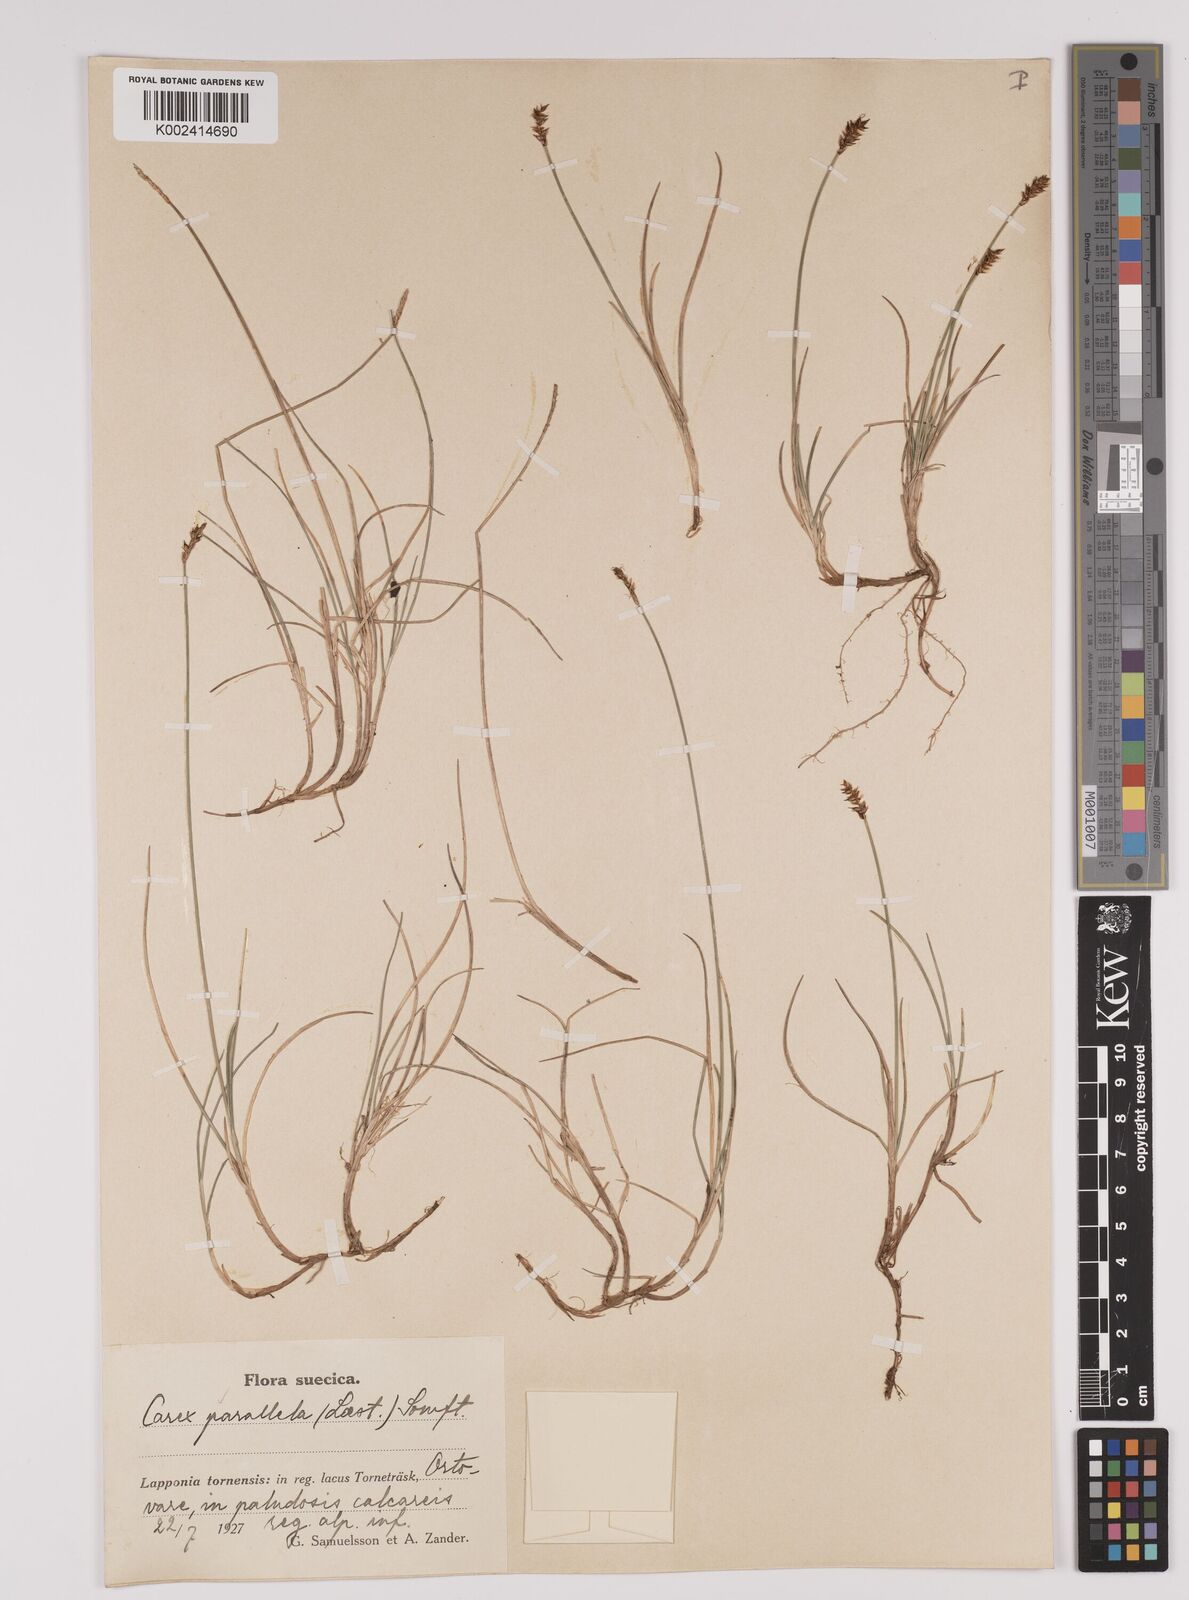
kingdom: Plantae
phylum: Tracheophyta
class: Liliopsida
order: Poales
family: Cyperaceae
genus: Carex
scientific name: Carex parallela
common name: Parallel sedge
